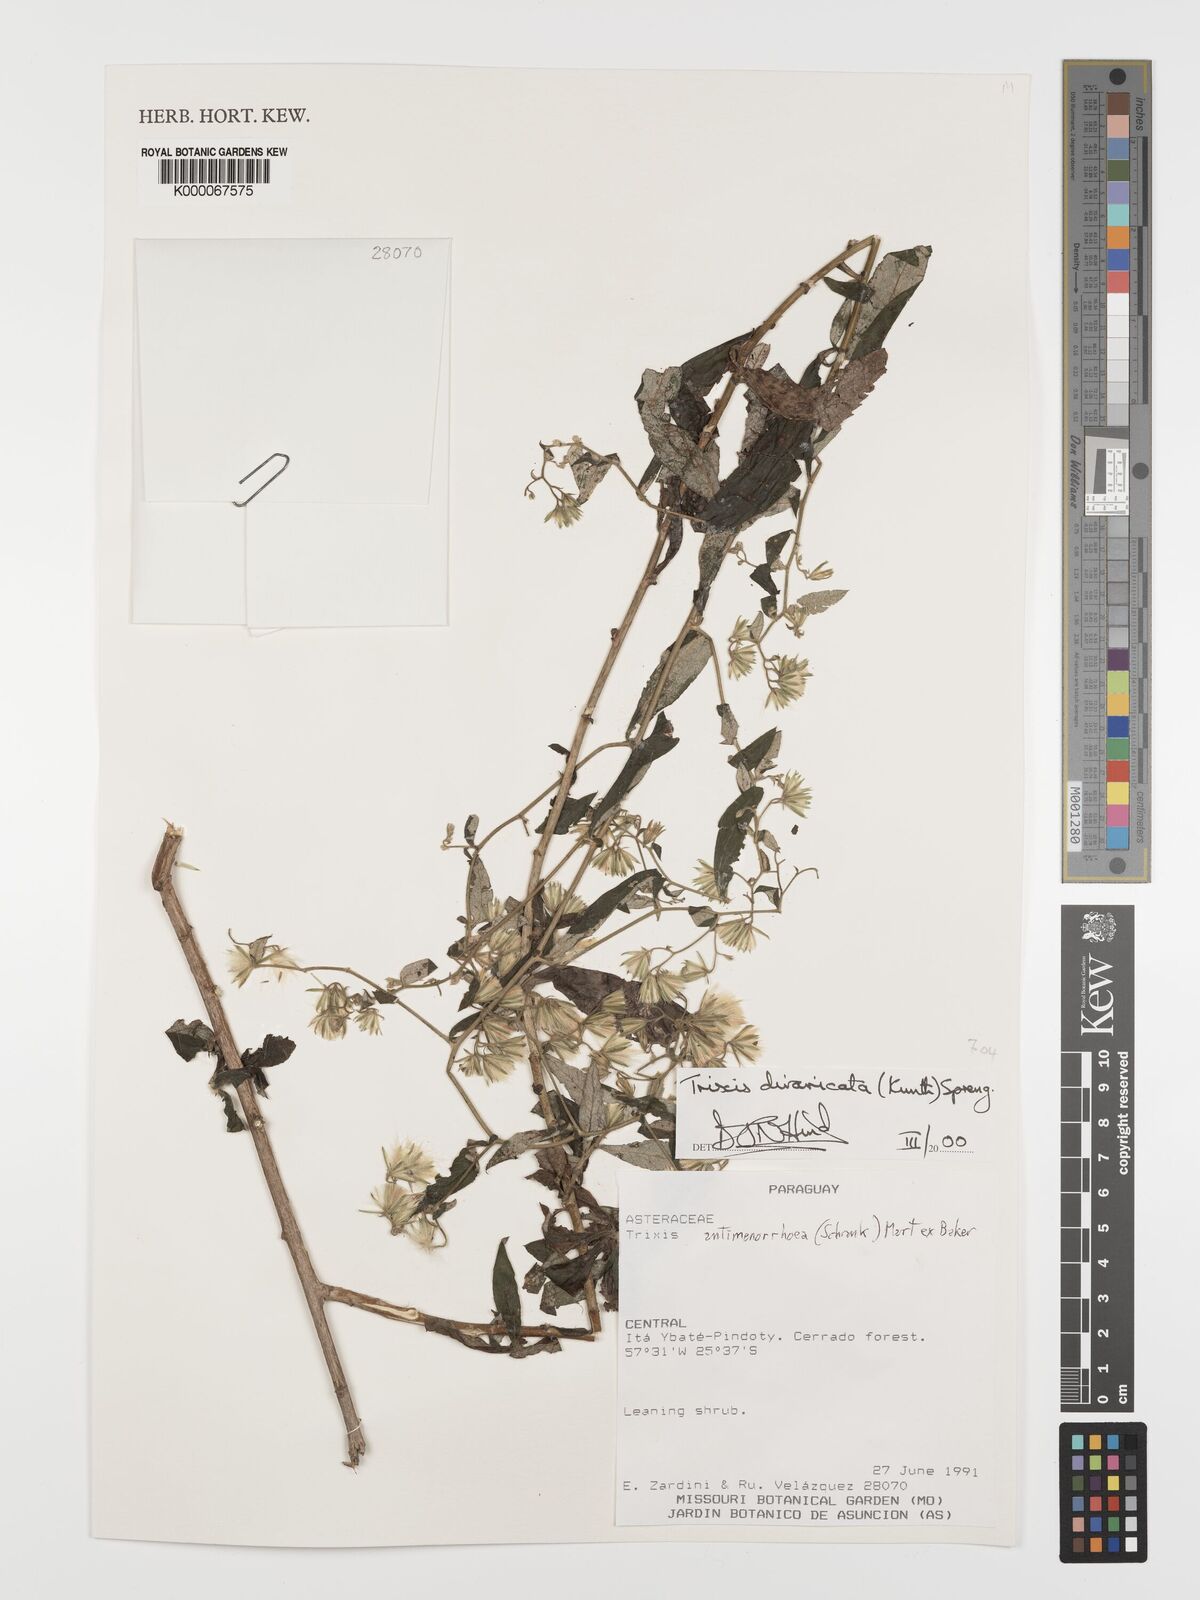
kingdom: Plantae
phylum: Tracheophyta
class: Magnoliopsida
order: Asterales
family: Asteraceae
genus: Trixis
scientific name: Trixis divaricata
